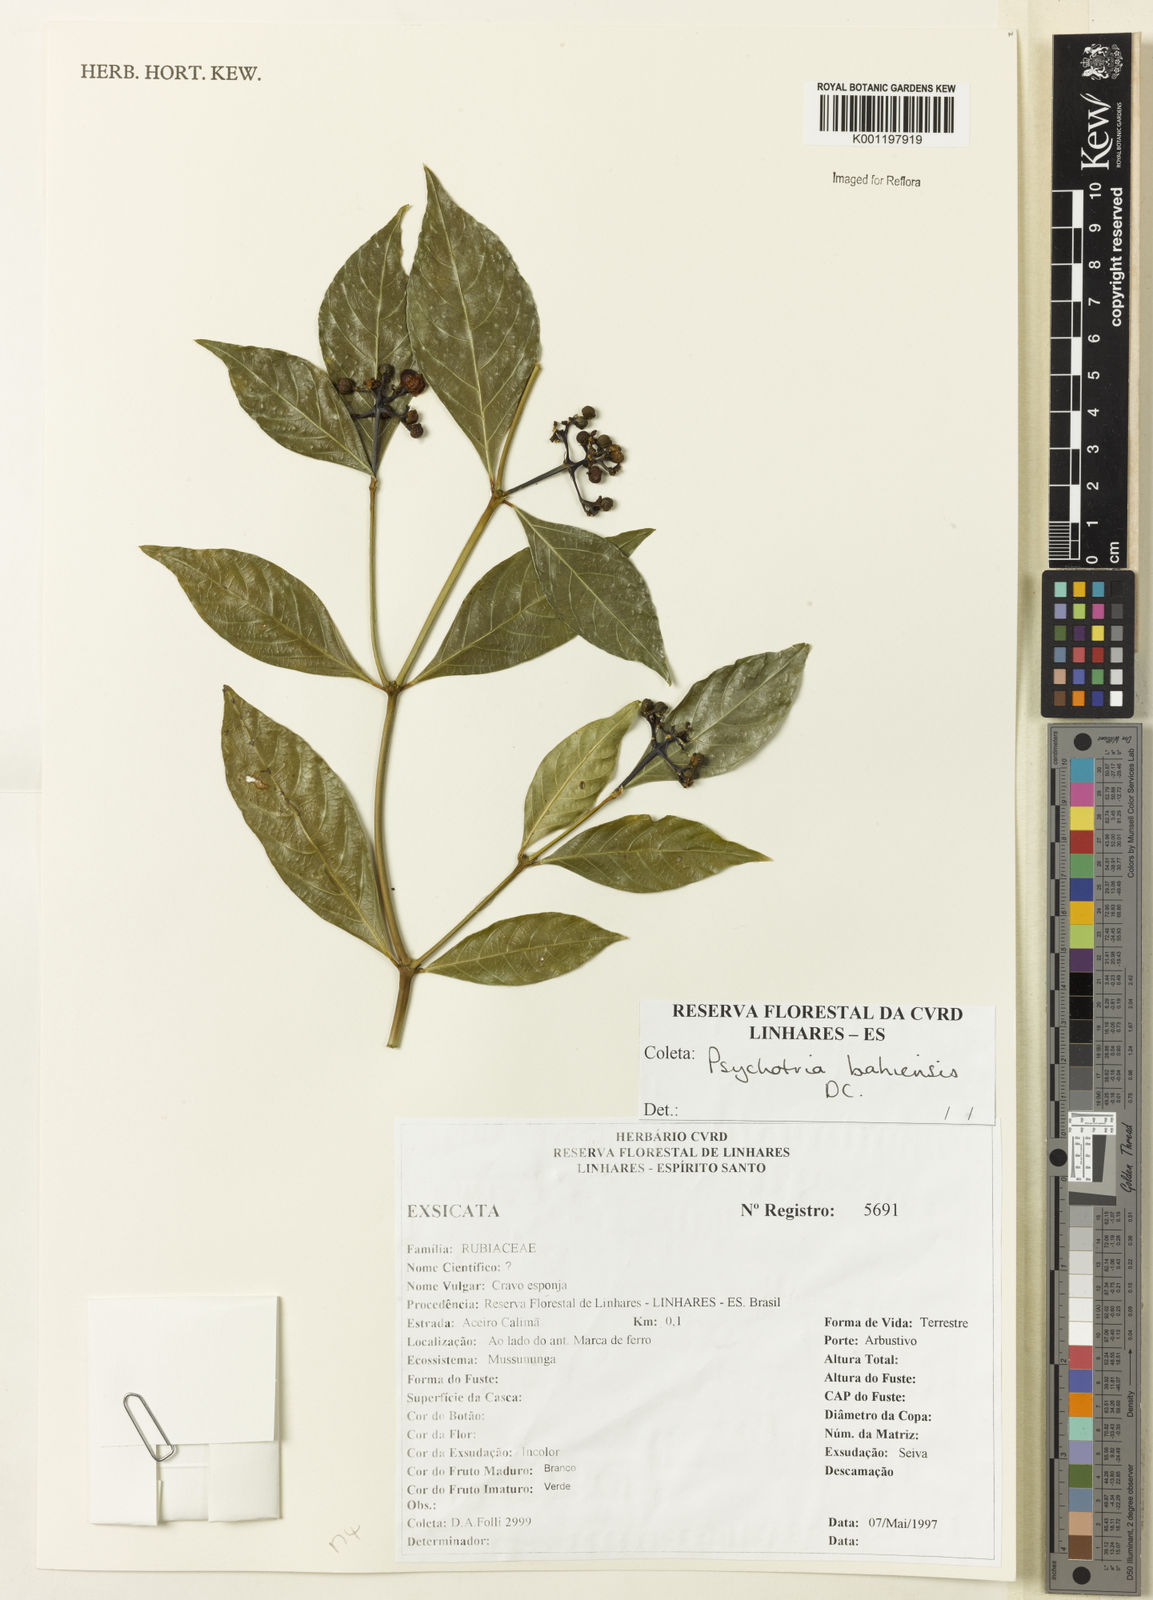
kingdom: Plantae
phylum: Tracheophyta
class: Magnoliopsida
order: Gentianales
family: Rubiaceae
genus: Psychotria
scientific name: Psychotria bahiensis
